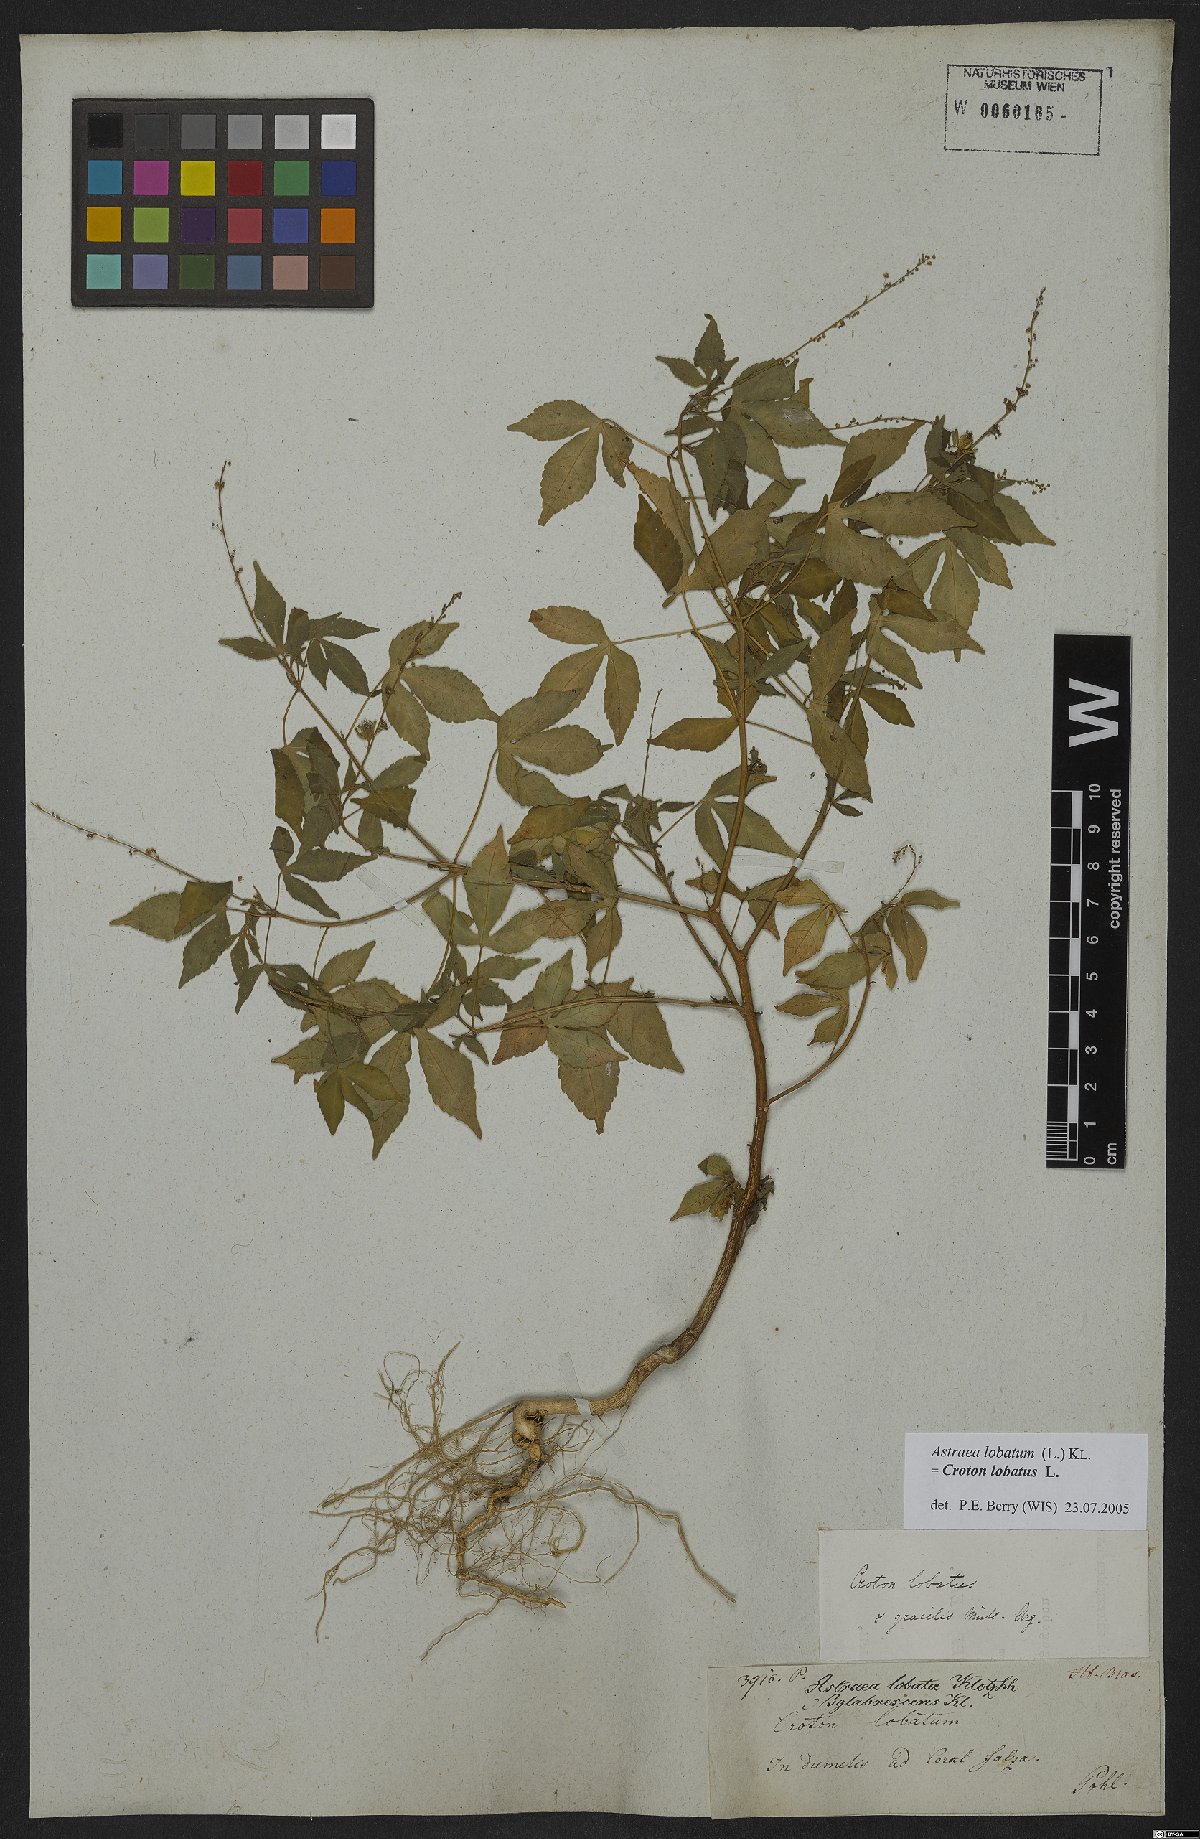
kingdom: Plantae
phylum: Tracheophyta
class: Magnoliopsida
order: Malpighiales
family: Euphorbiaceae
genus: Croton
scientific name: Croton lobatus
